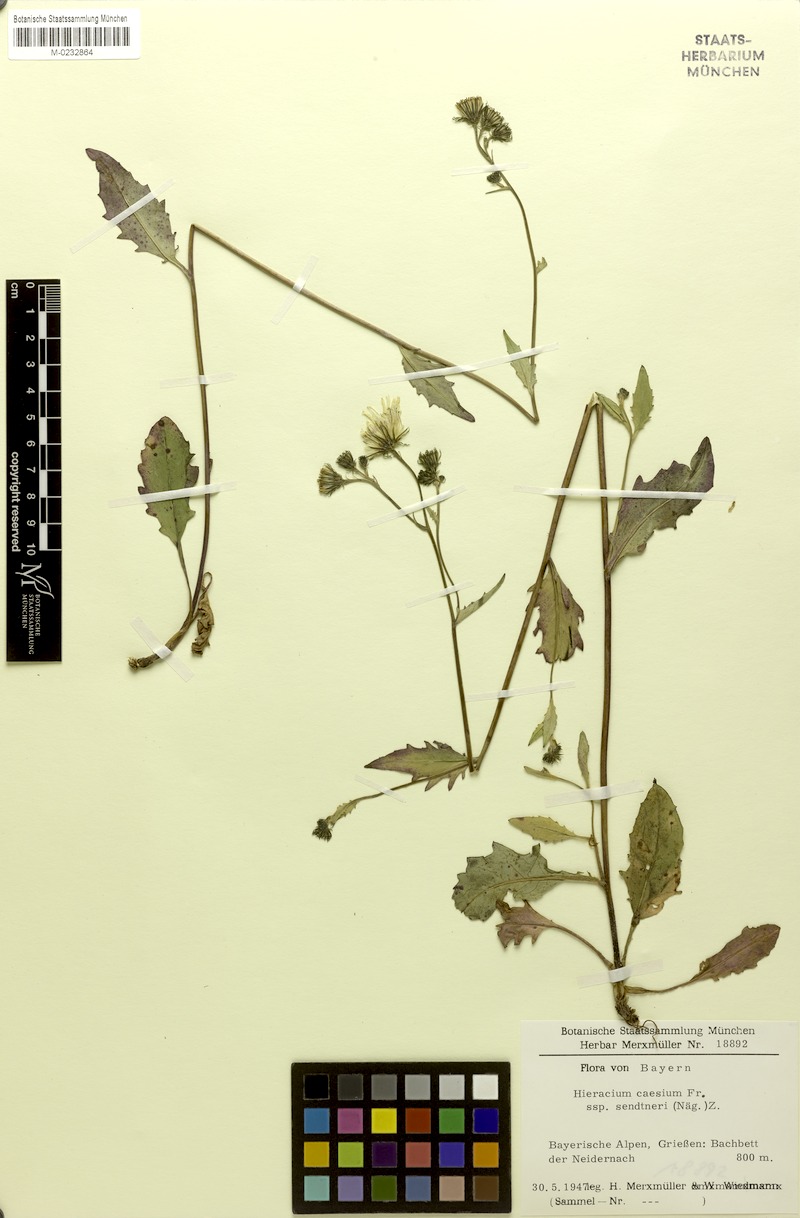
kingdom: Plantae
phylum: Tracheophyta
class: Magnoliopsida
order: Asterales
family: Asteraceae
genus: Hieracium
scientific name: Hieracium caesium
